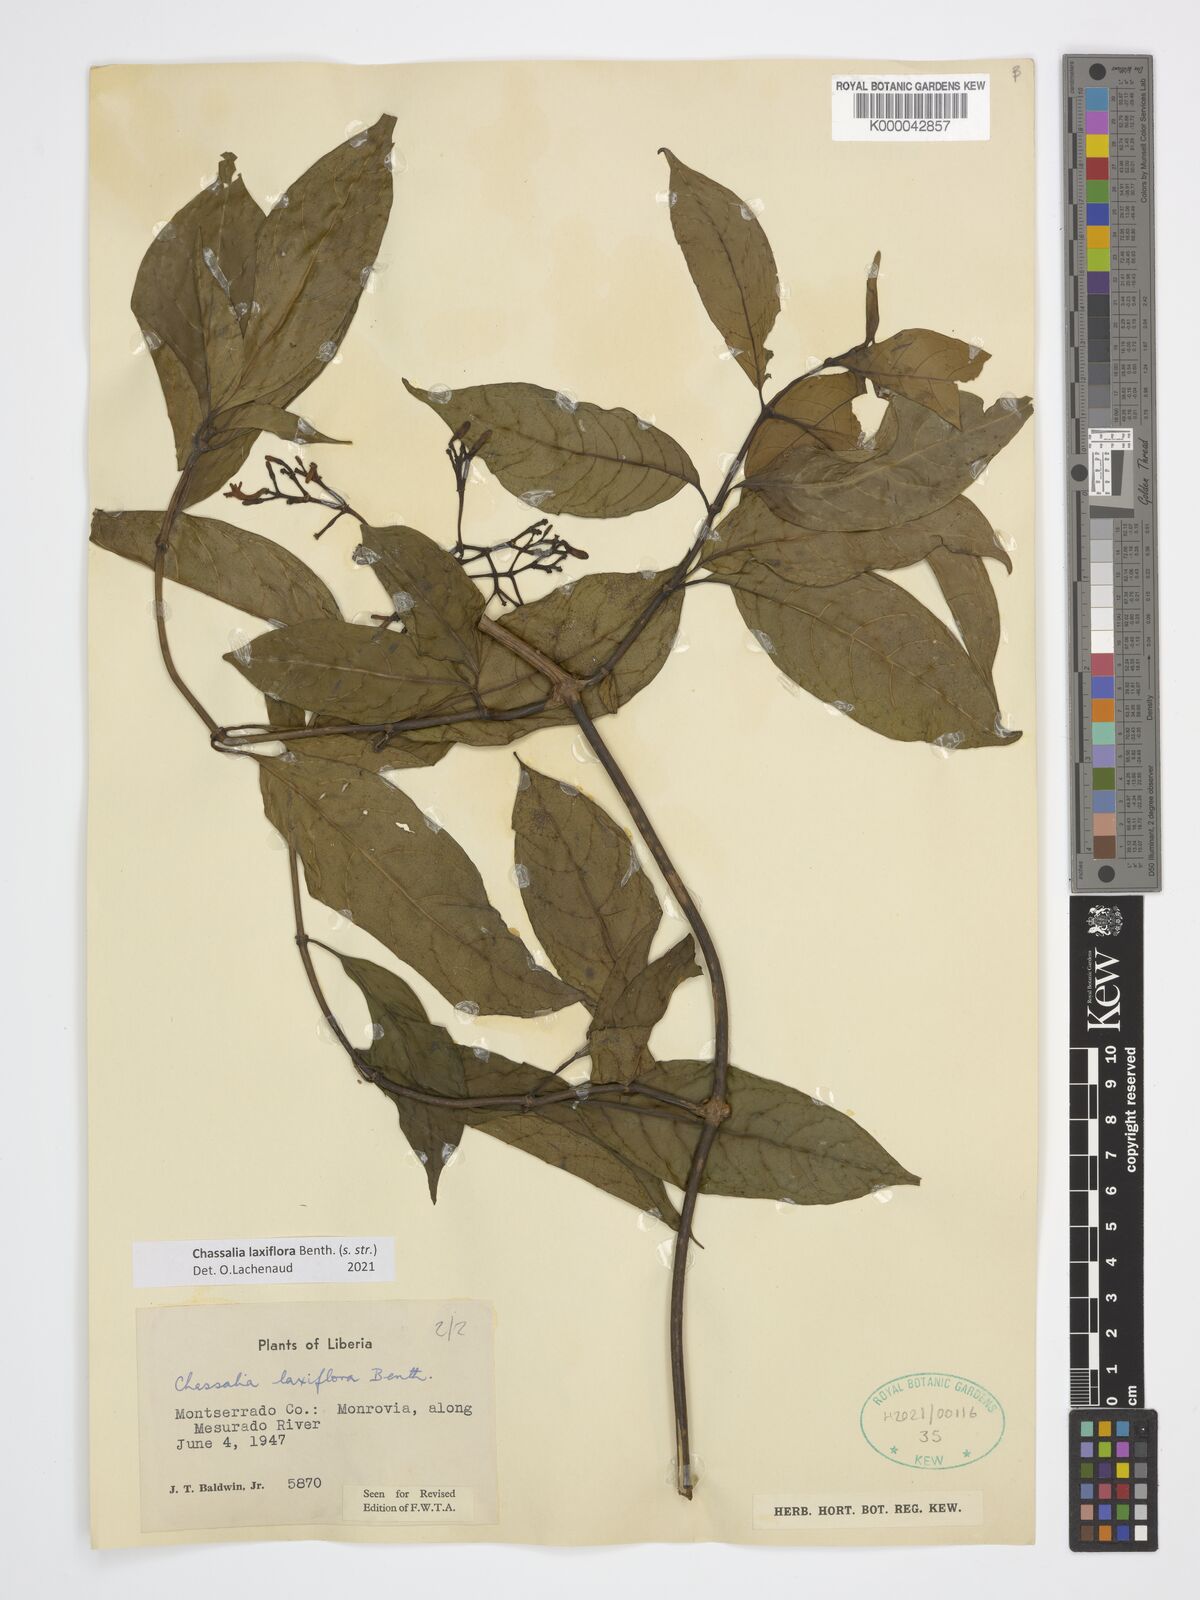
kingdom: Plantae
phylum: Tracheophyta
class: Magnoliopsida
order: Gentianales
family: Rubiaceae
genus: Chassalia
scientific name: Chassalia laxiflora
